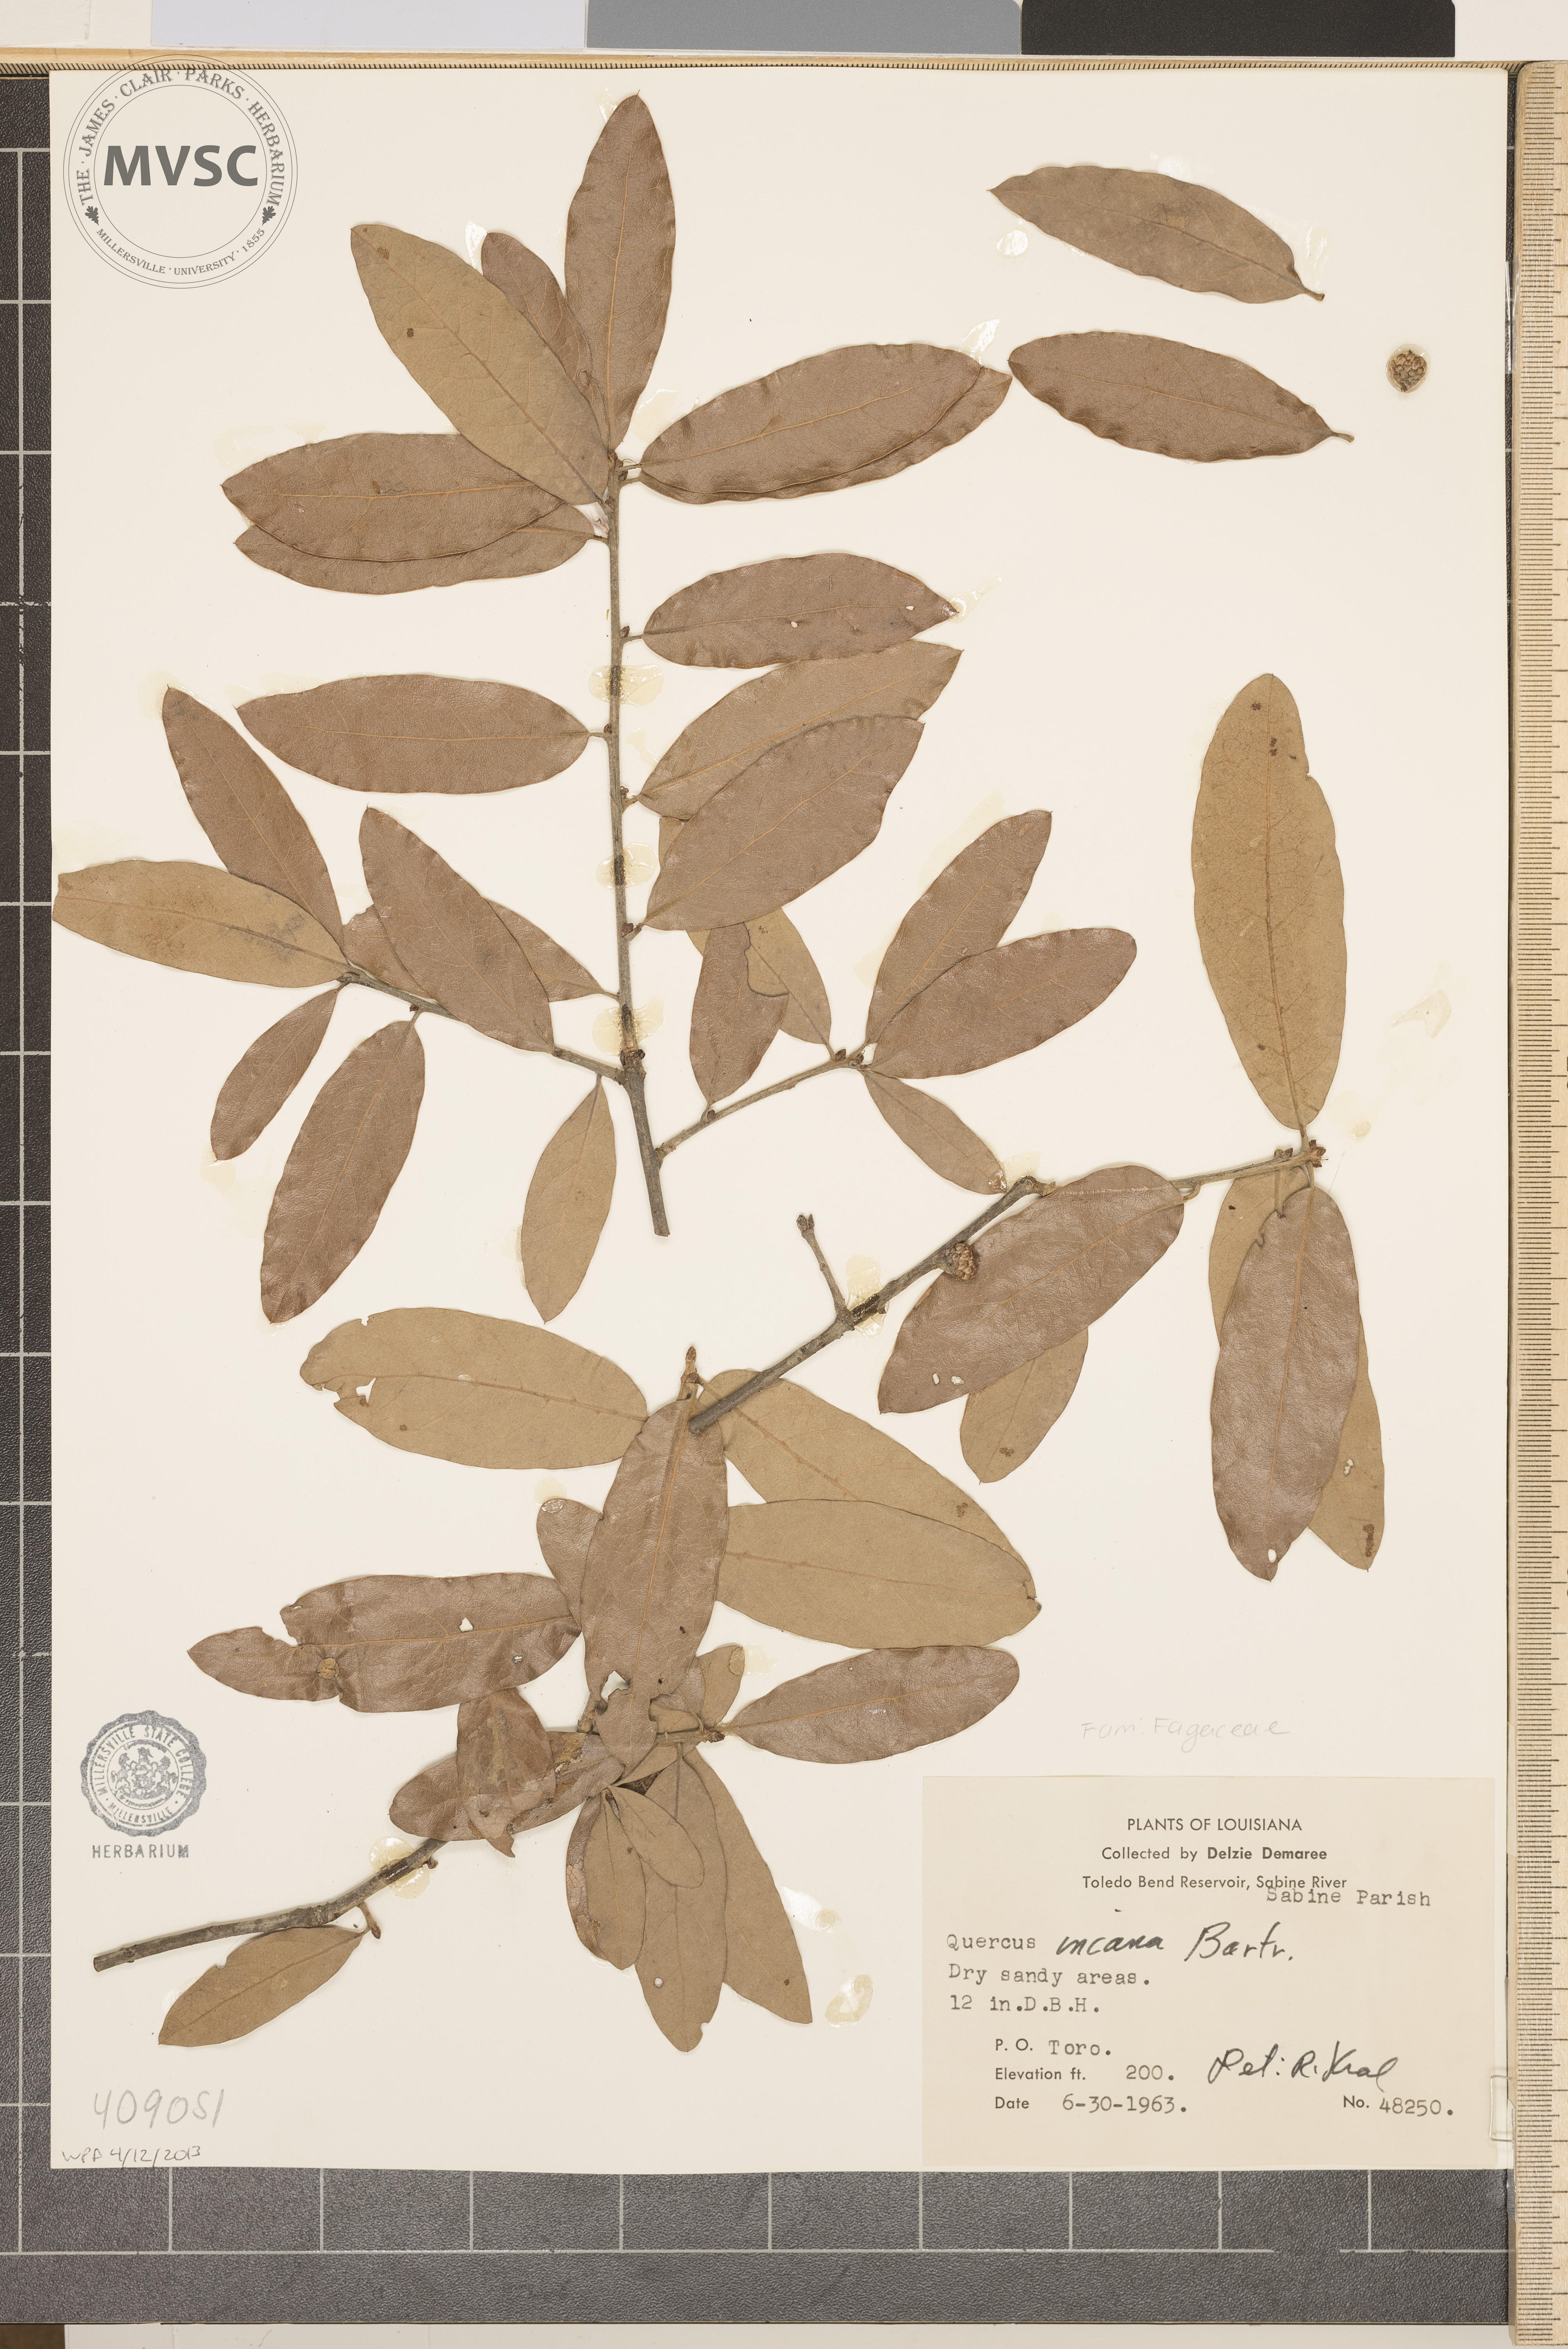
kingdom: Plantae
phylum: Tracheophyta
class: Magnoliopsida
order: Fagales
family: Fagaceae
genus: Quercus
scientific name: Quercus incana
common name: Bluejack oak
